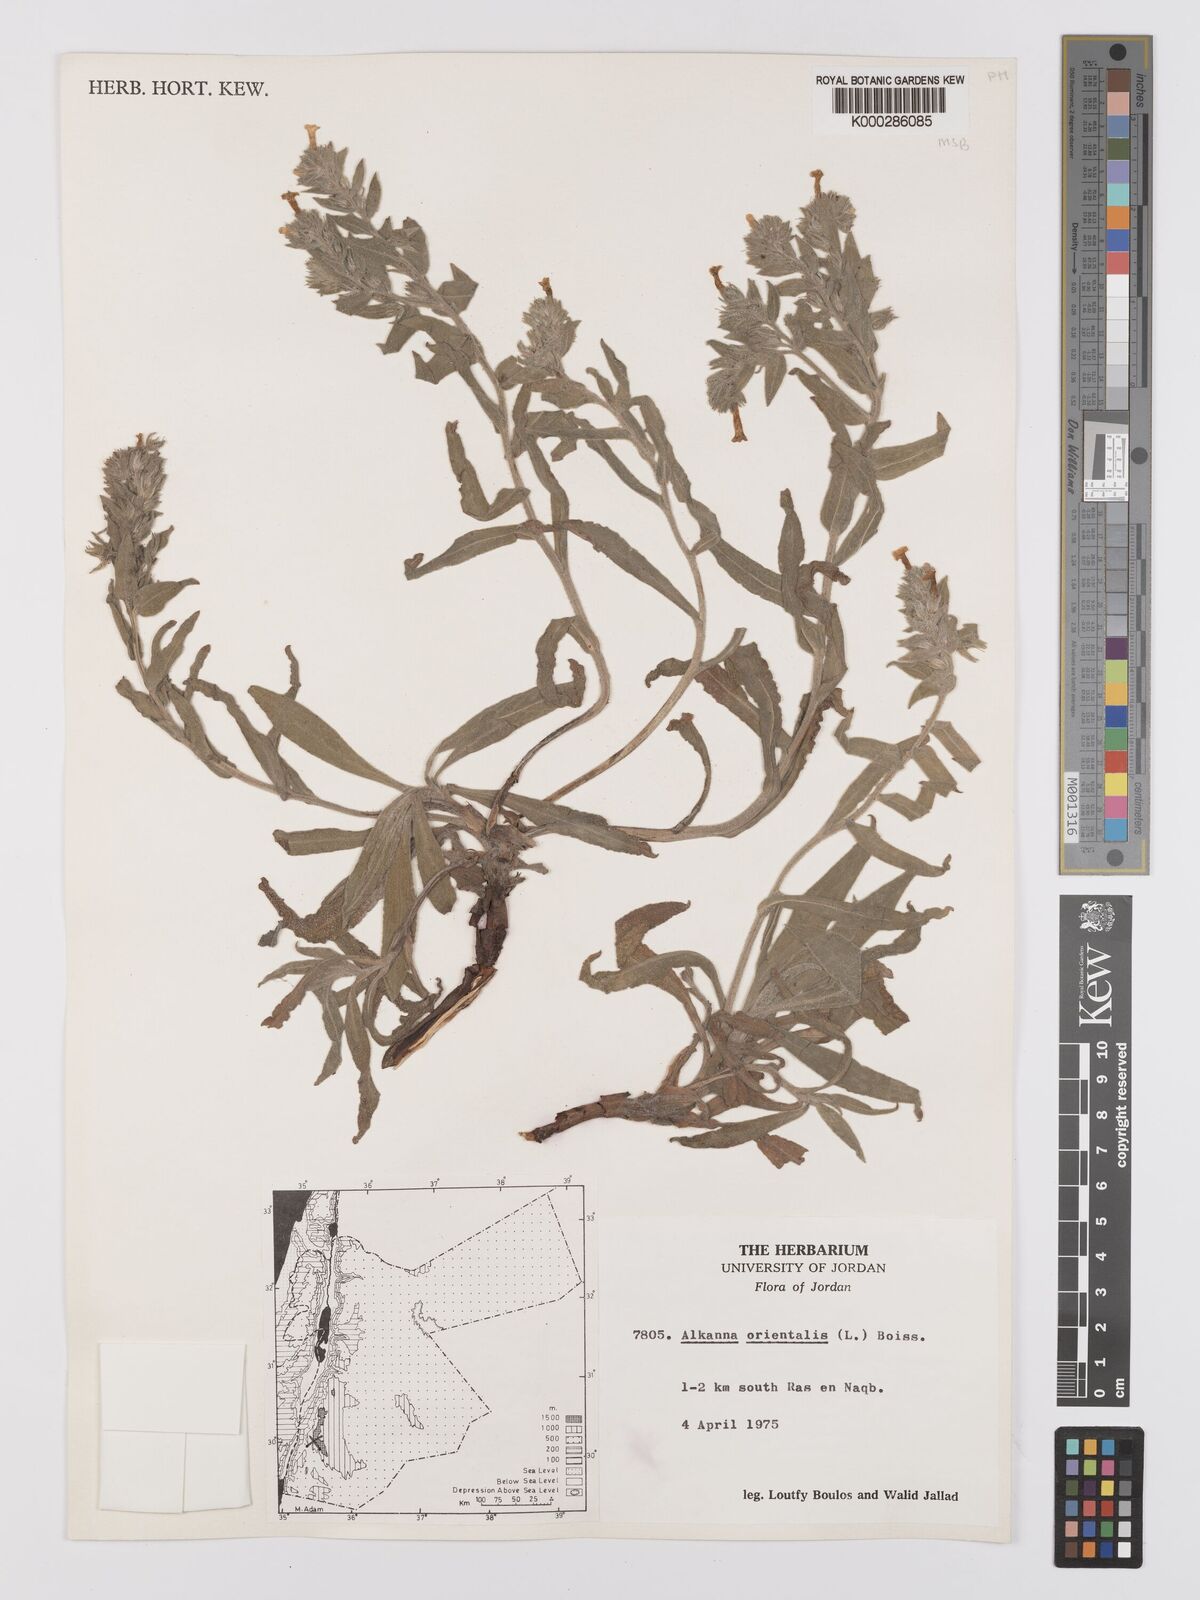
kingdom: Plantae
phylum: Tracheophyta
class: Magnoliopsida
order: Boraginales
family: Boraginaceae
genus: Alkanna
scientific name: Alkanna orientalis
